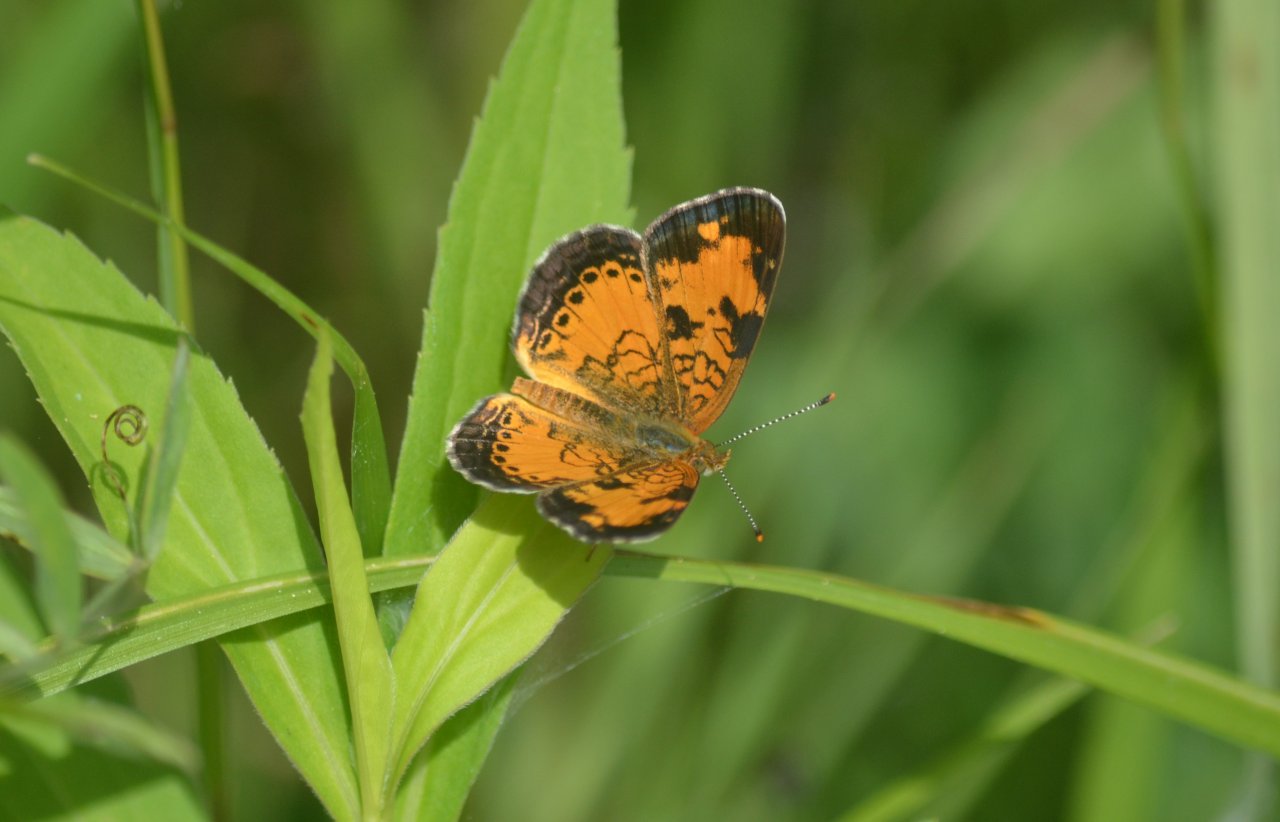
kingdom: Animalia
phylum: Arthropoda
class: Insecta
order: Lepidoptera
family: Nymphalidae
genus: Phyciodes
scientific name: Phyciodes tharos
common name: Northern Crescent
